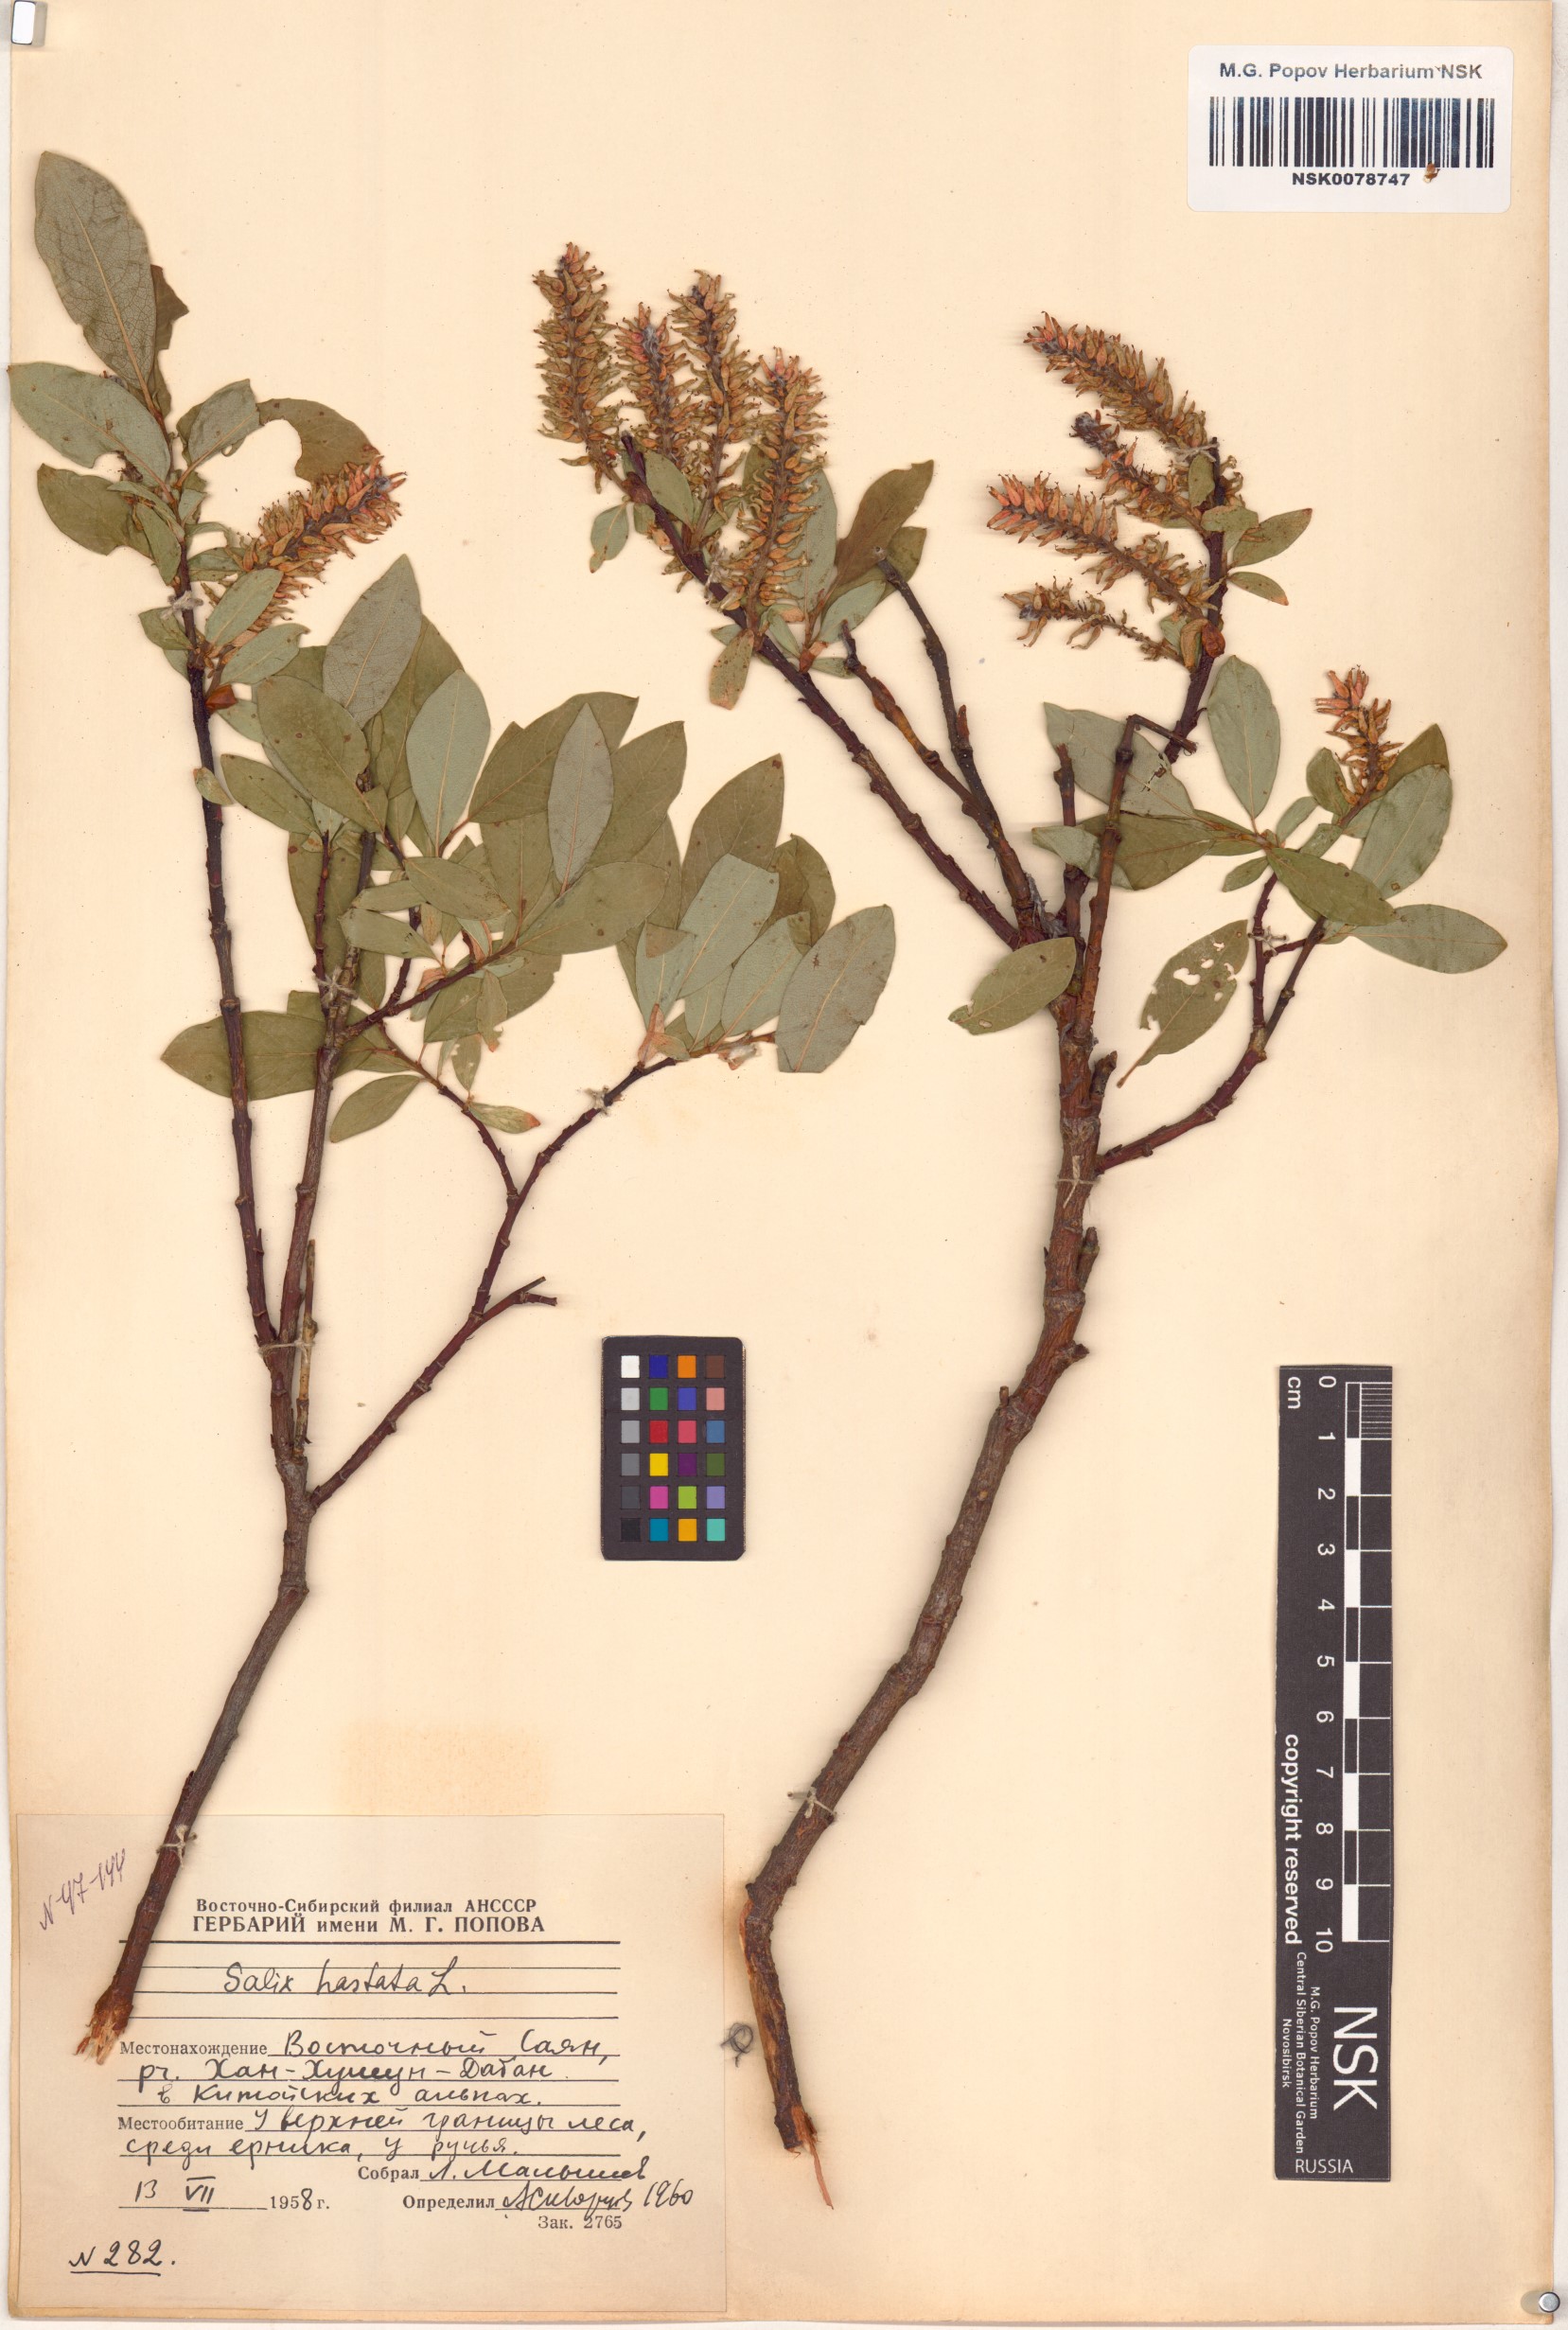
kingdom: Plantae
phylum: Tracheophyta
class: Magnoliopsida
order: Malpighiales
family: Salicaceae
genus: Salix
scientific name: Salix hastata
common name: Halberd willow
